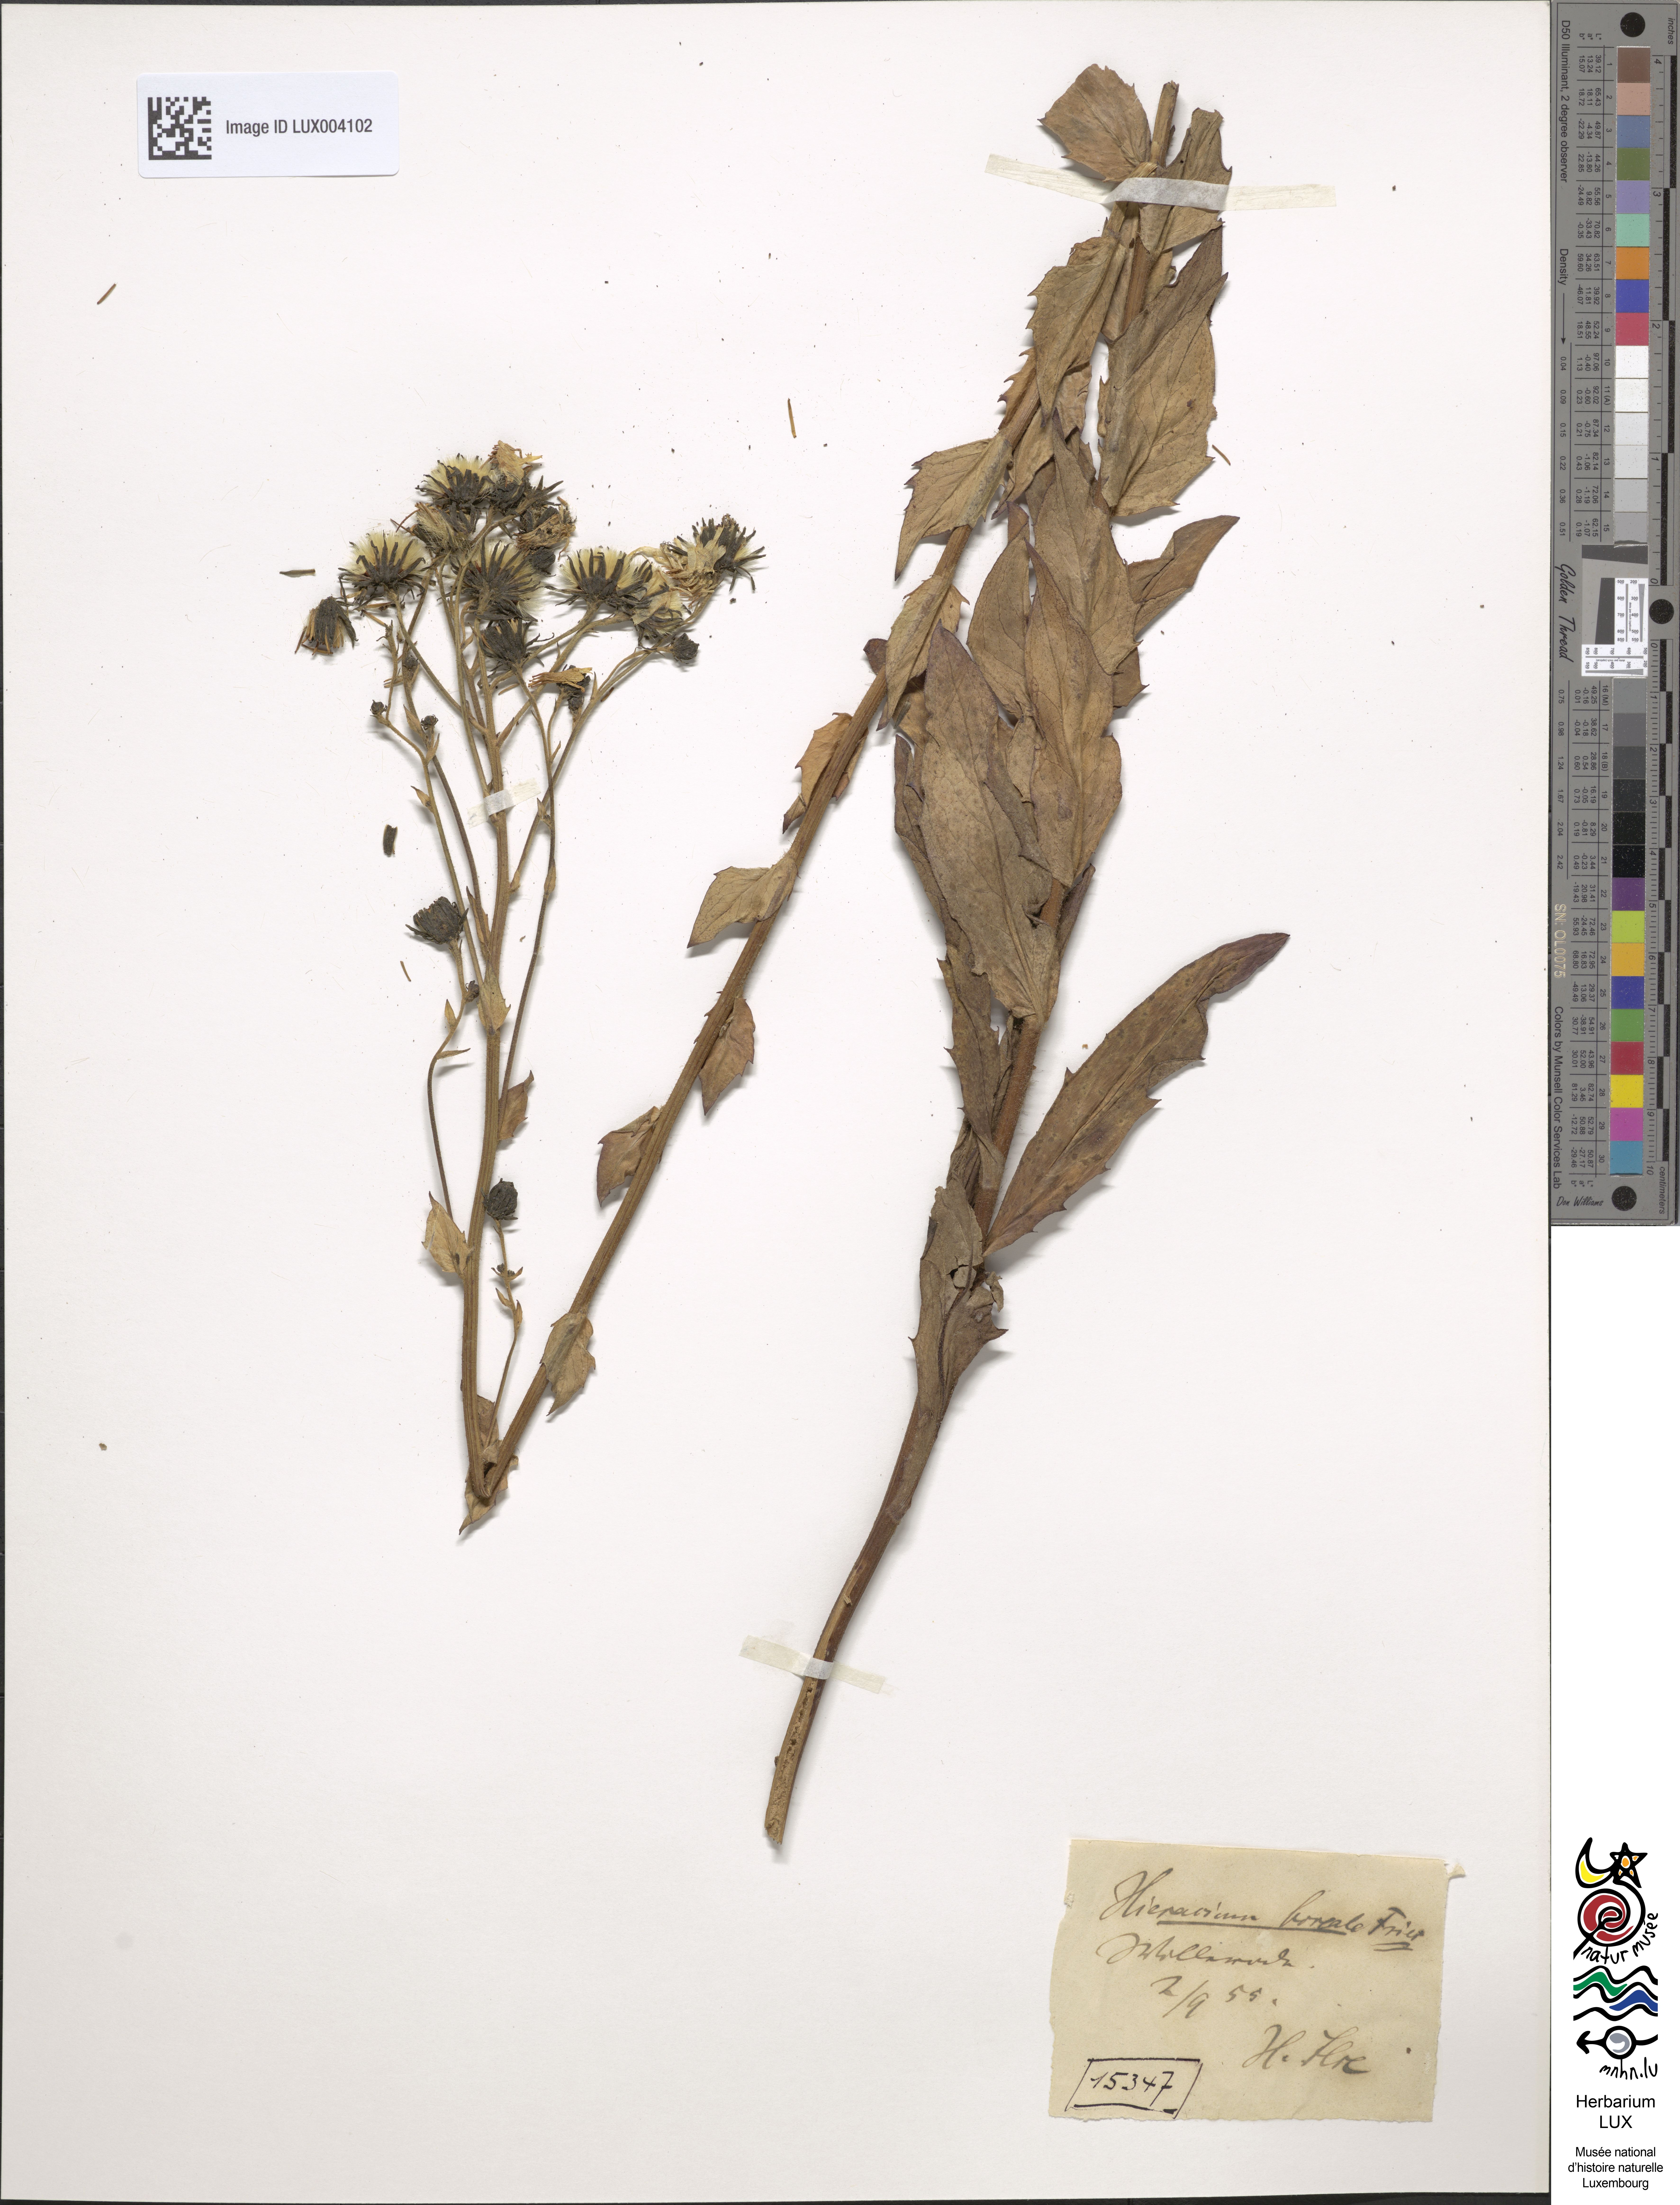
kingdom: Plantae
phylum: Tracheophyta
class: Magnoliopsida
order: Asterales
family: Asteraceae
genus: Hieracium
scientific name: Hieracium sabaudum
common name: New england hawkweed
